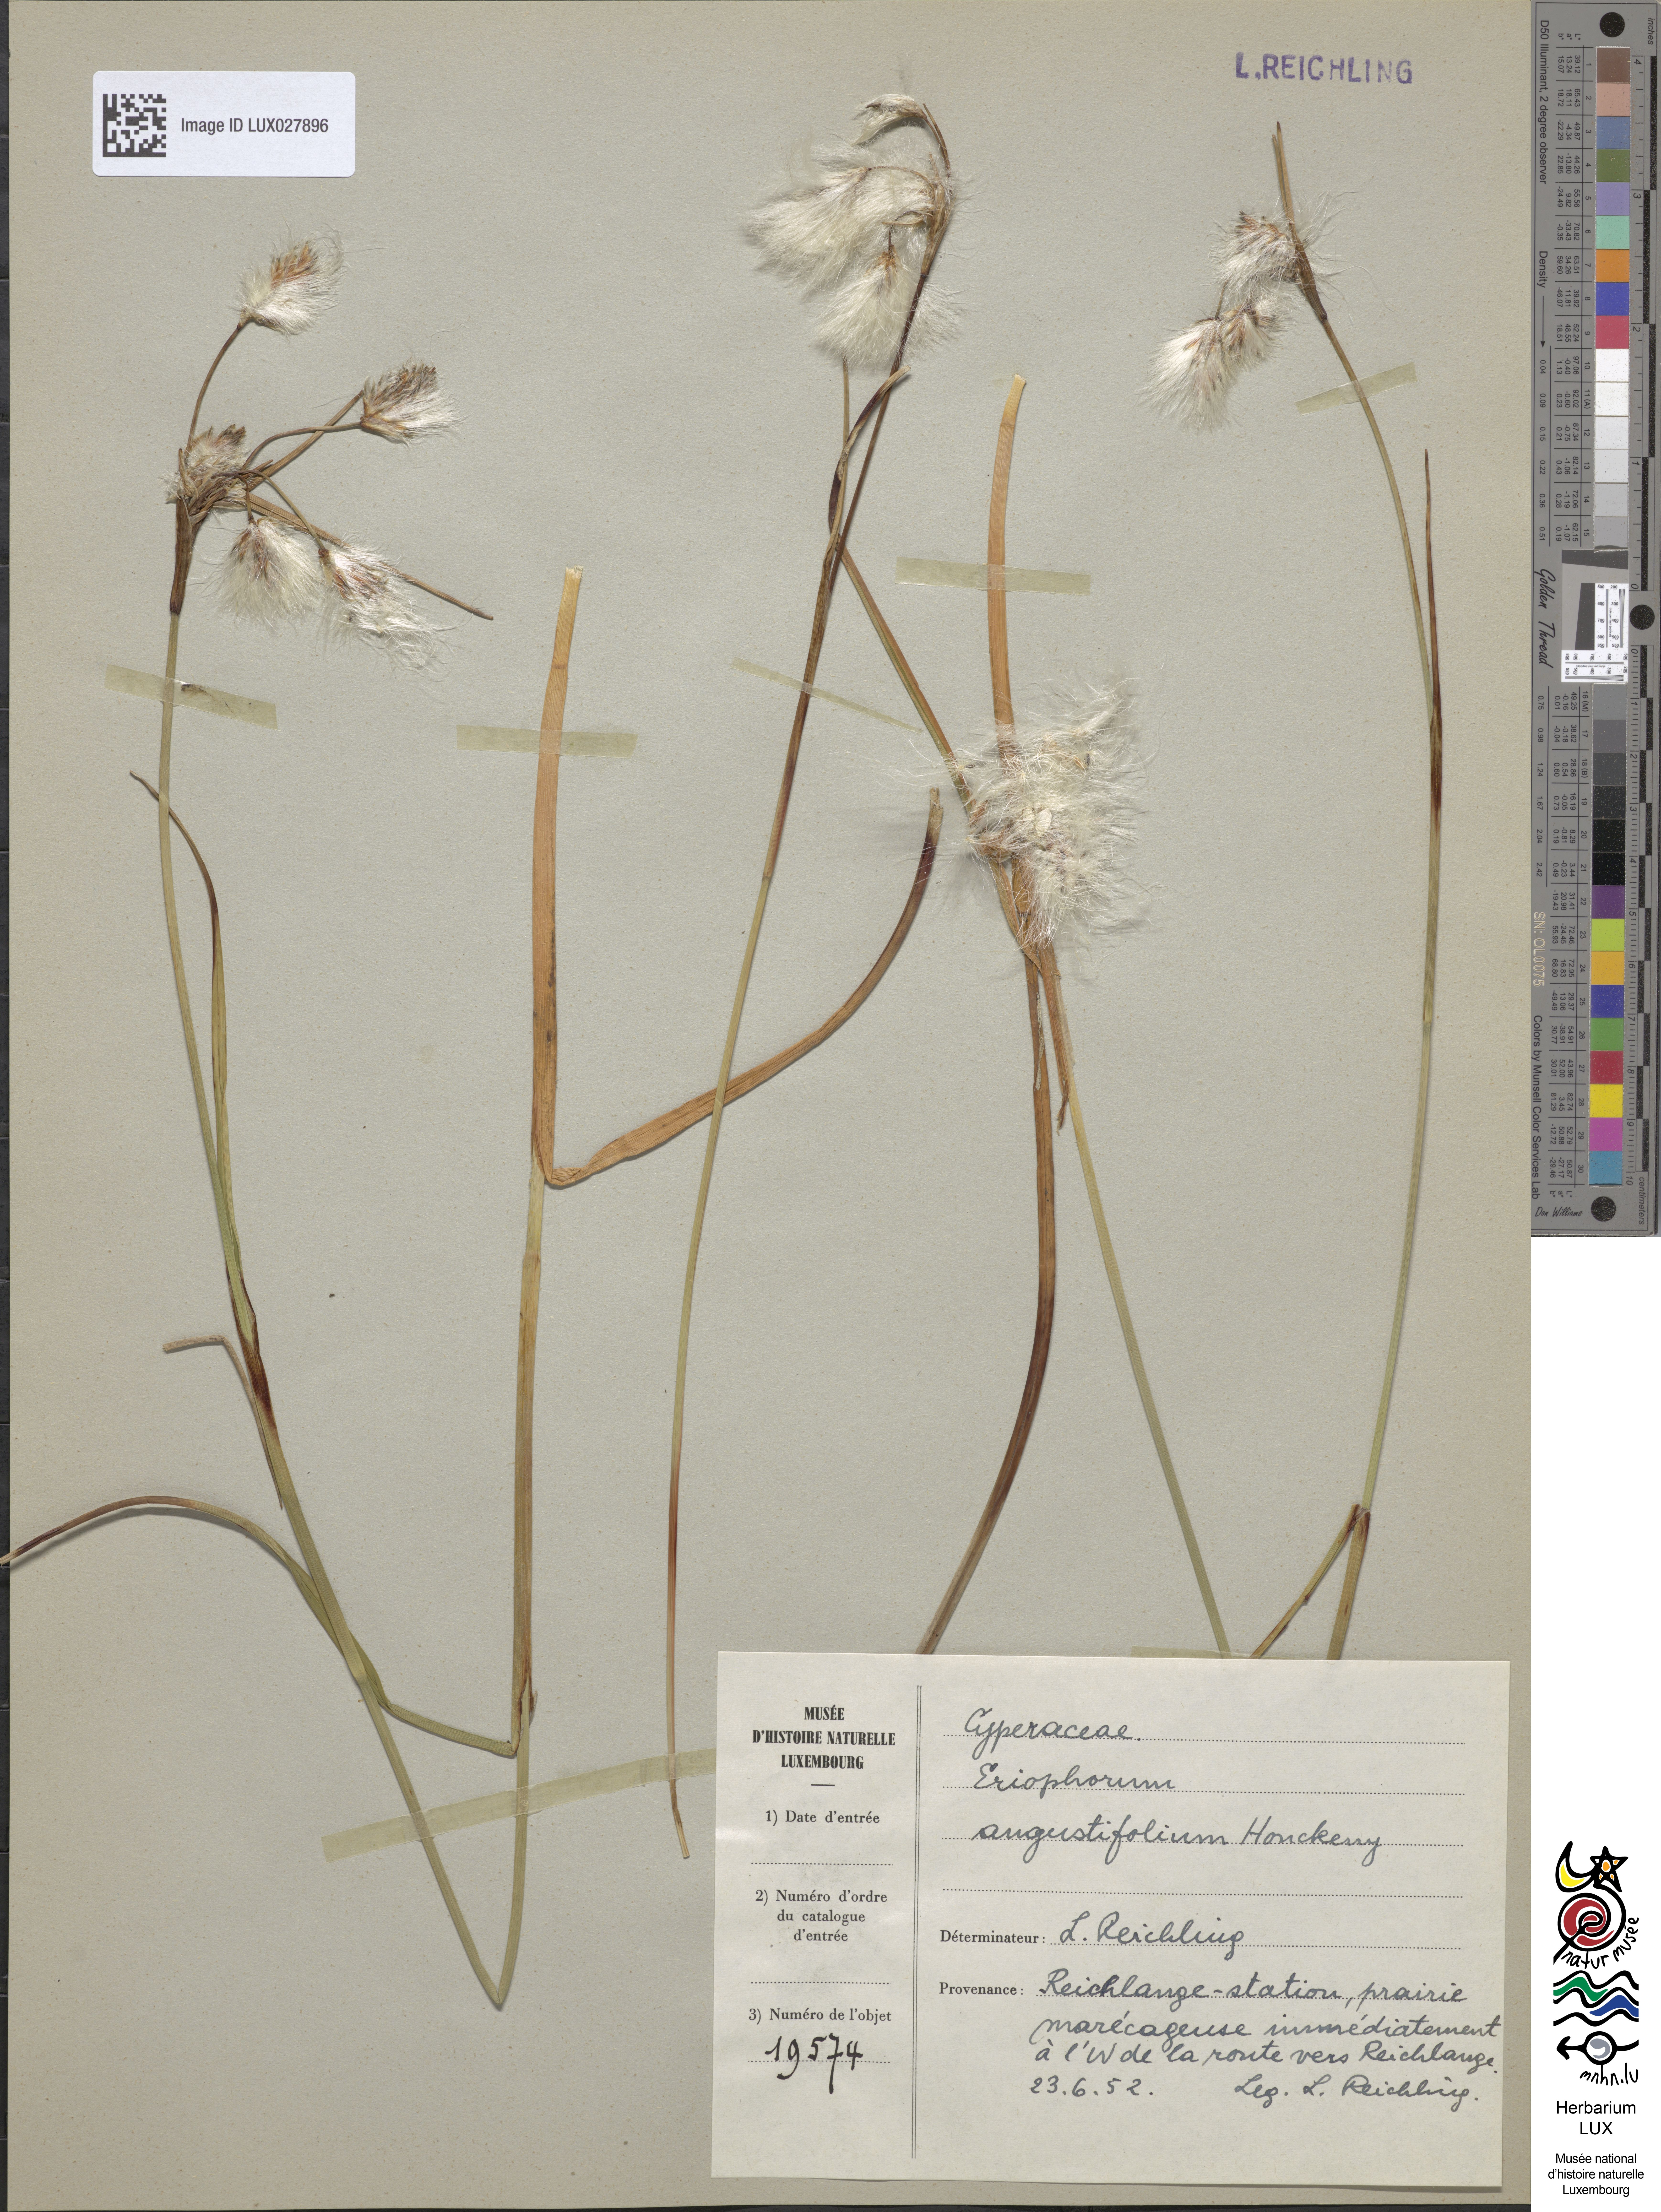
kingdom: Plantae
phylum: Tracheophyta
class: Liliopsida
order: Poales
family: Cyperaceae
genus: Eriophorum
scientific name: Eriophorum angustifolium
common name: Common cottongrass
